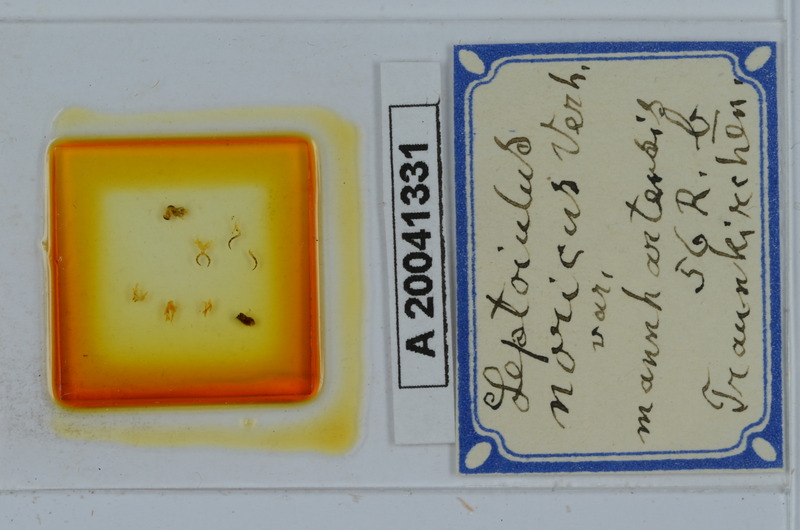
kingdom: Animalia
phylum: Arthropoda
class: Diplopoda
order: Julida
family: Julidae
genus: Leptoiulus
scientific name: Leptoiulus noricus
